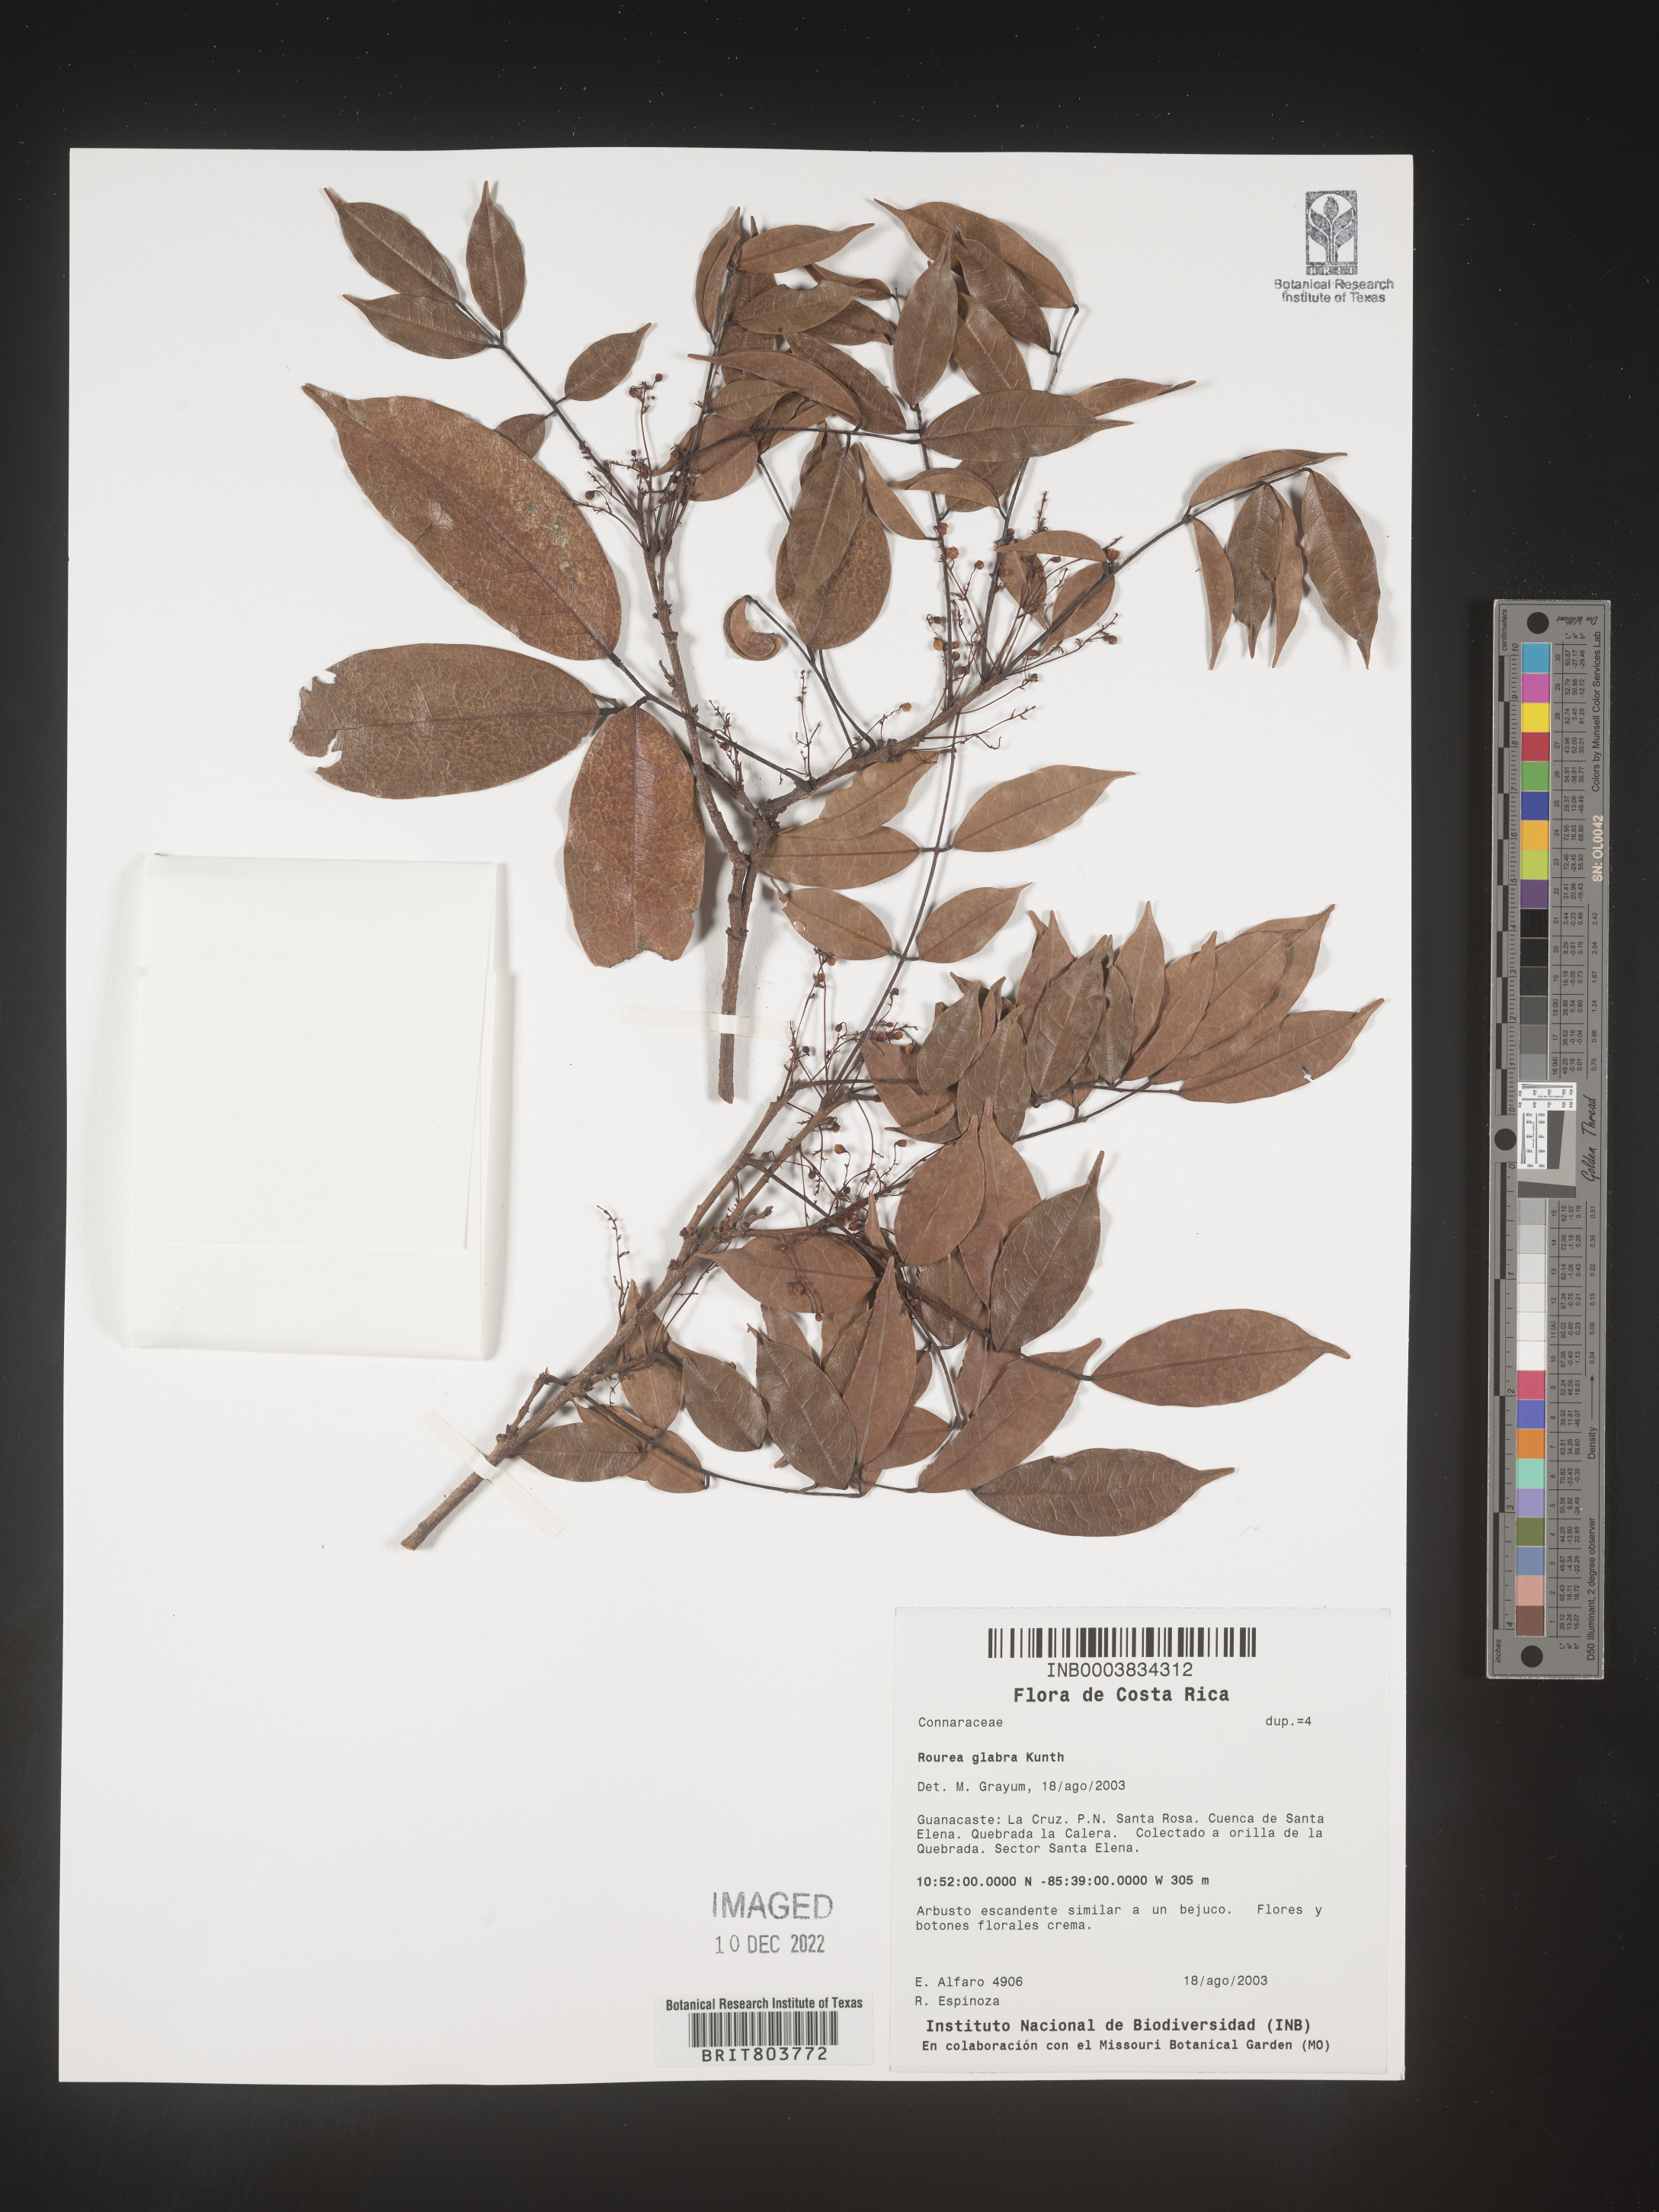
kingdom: Plantae
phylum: Tracheophyta
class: Magnoliopsida
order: Oxalidales
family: Connaraceae
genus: Rourea
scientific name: Rourea
